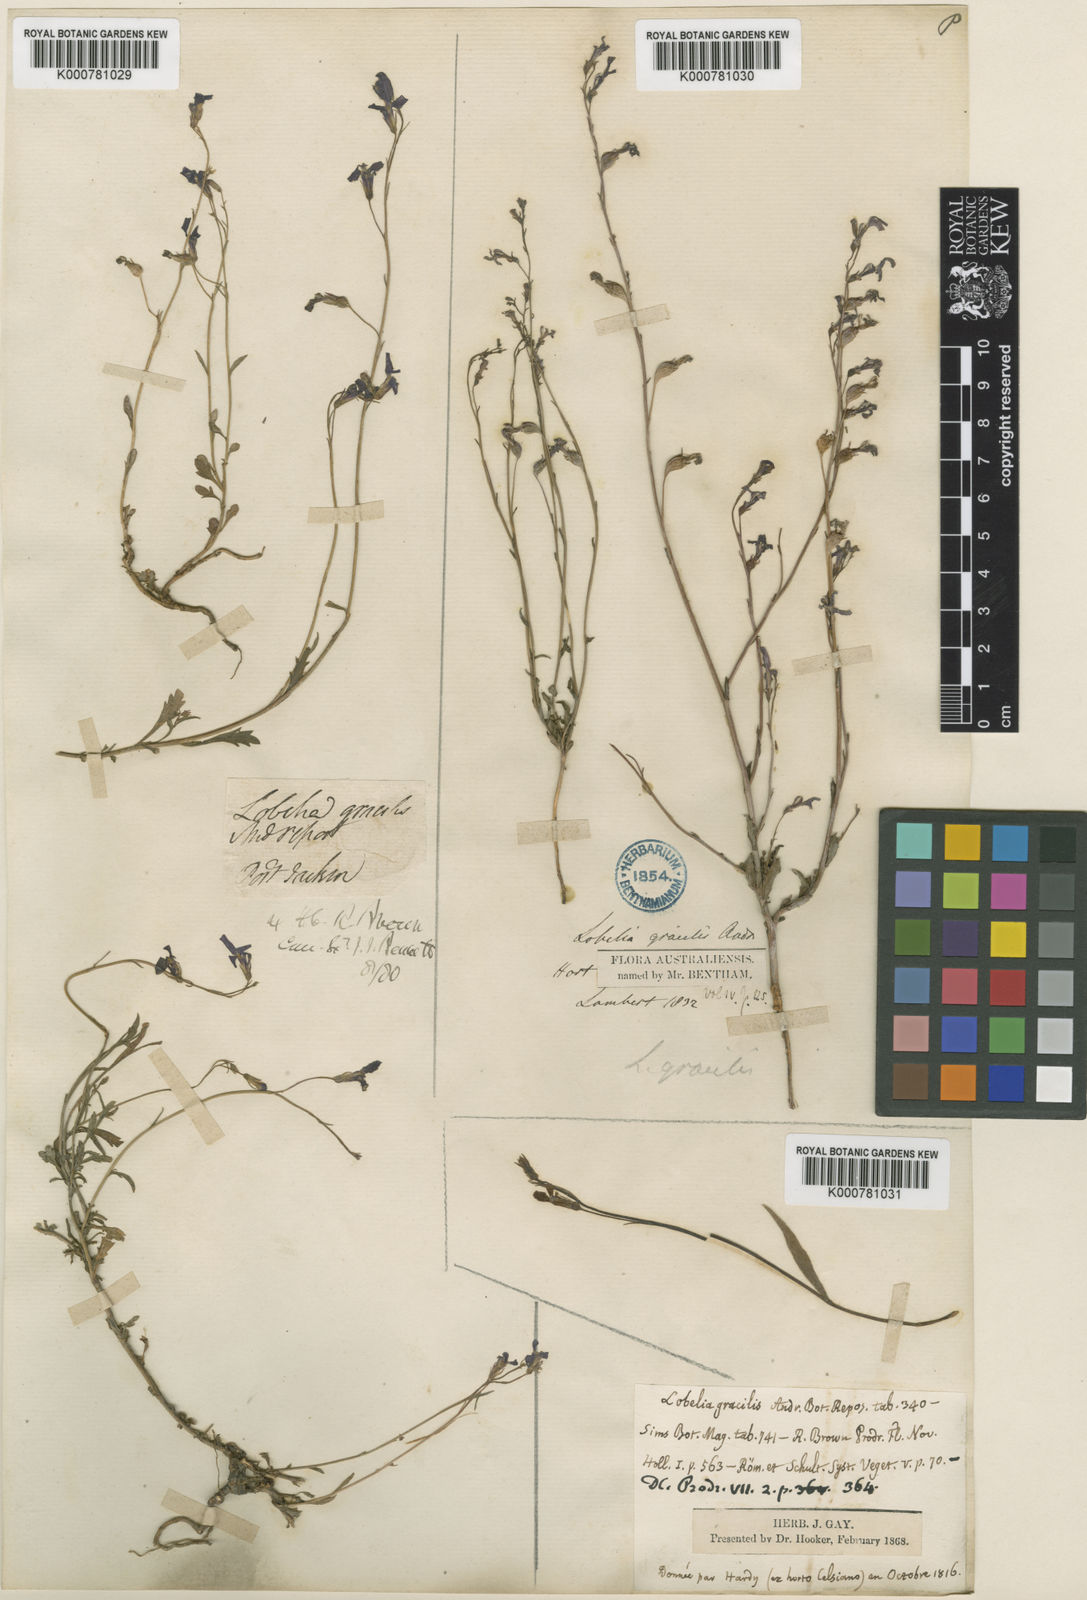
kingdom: Plantae
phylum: Tracheophyta
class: Magnoliopsida
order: Asterales
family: Campanulaceae
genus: Lobelia
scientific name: Lobelia andrewsii
